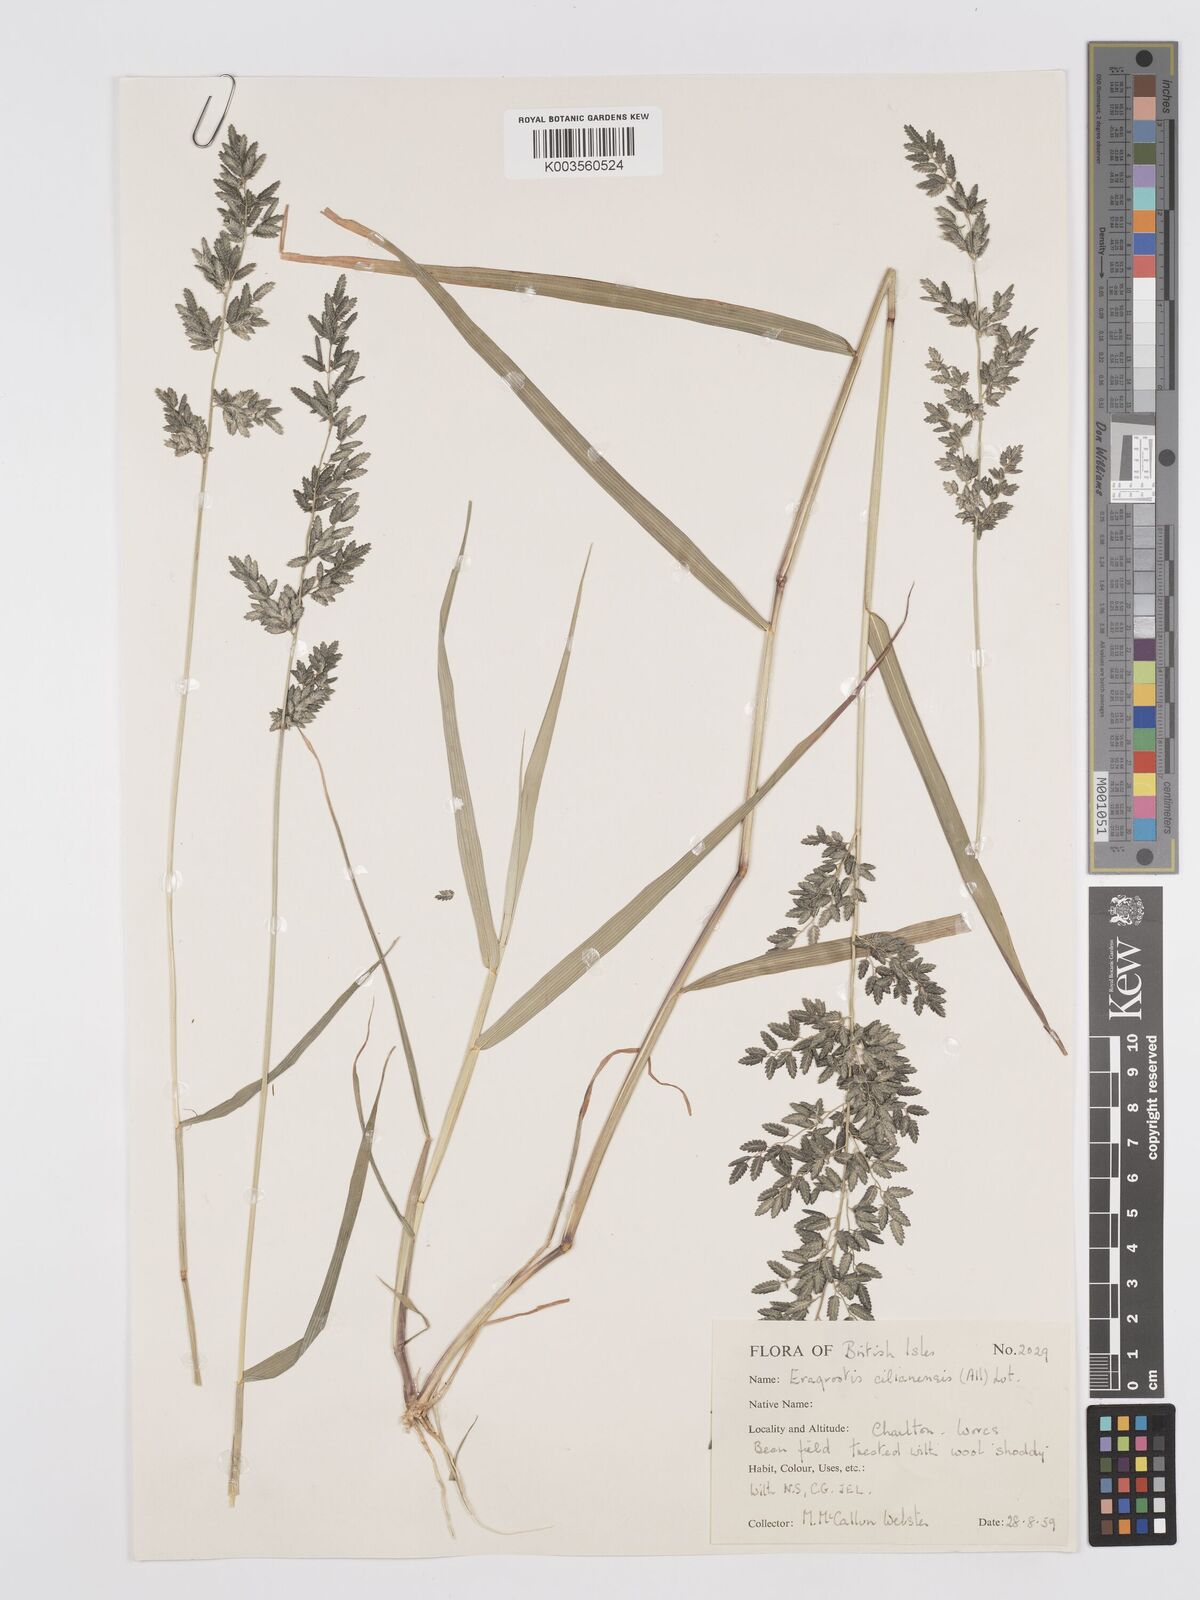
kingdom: Plantae
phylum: Tracheophyta
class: Liliopsida
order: Poales
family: Poaceae
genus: Eragrostis
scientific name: Eragrostis cilianensis
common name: Stinkgrass
